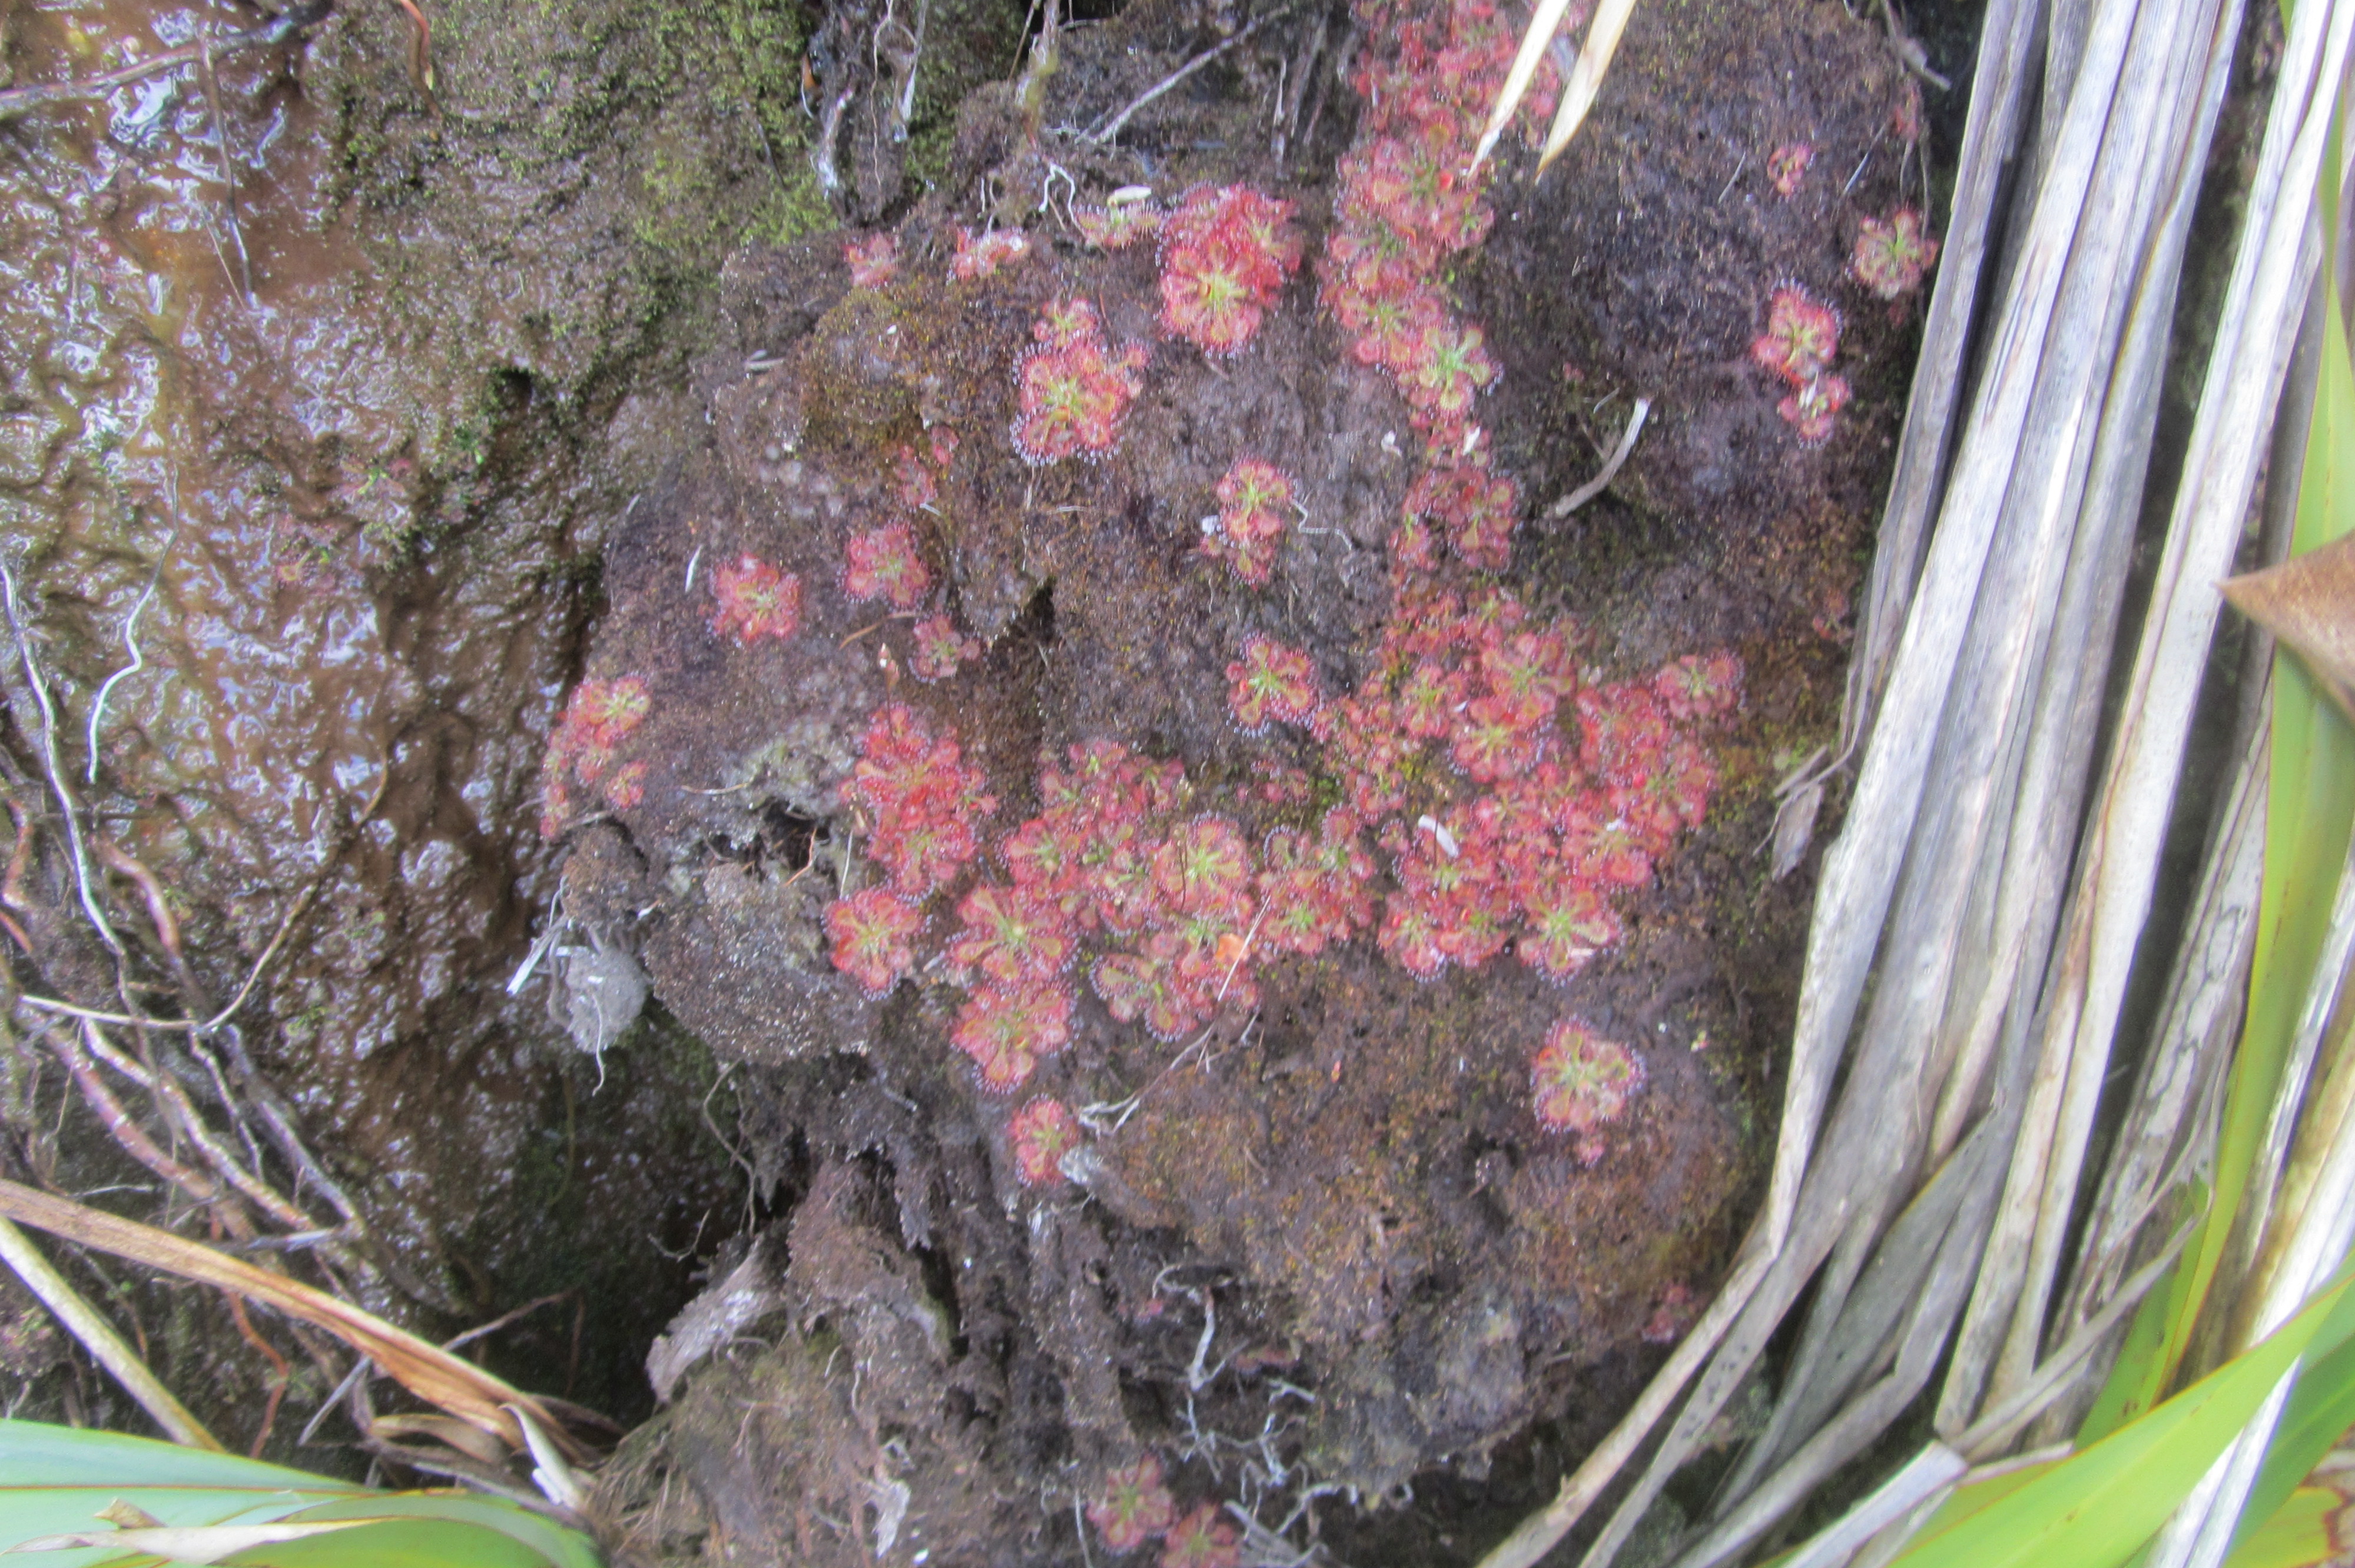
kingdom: Plantae
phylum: Tracheophyta
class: Magnoliopsida
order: Caryophyllales
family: Droseraceae
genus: Drosera
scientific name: Drosera spatulata
